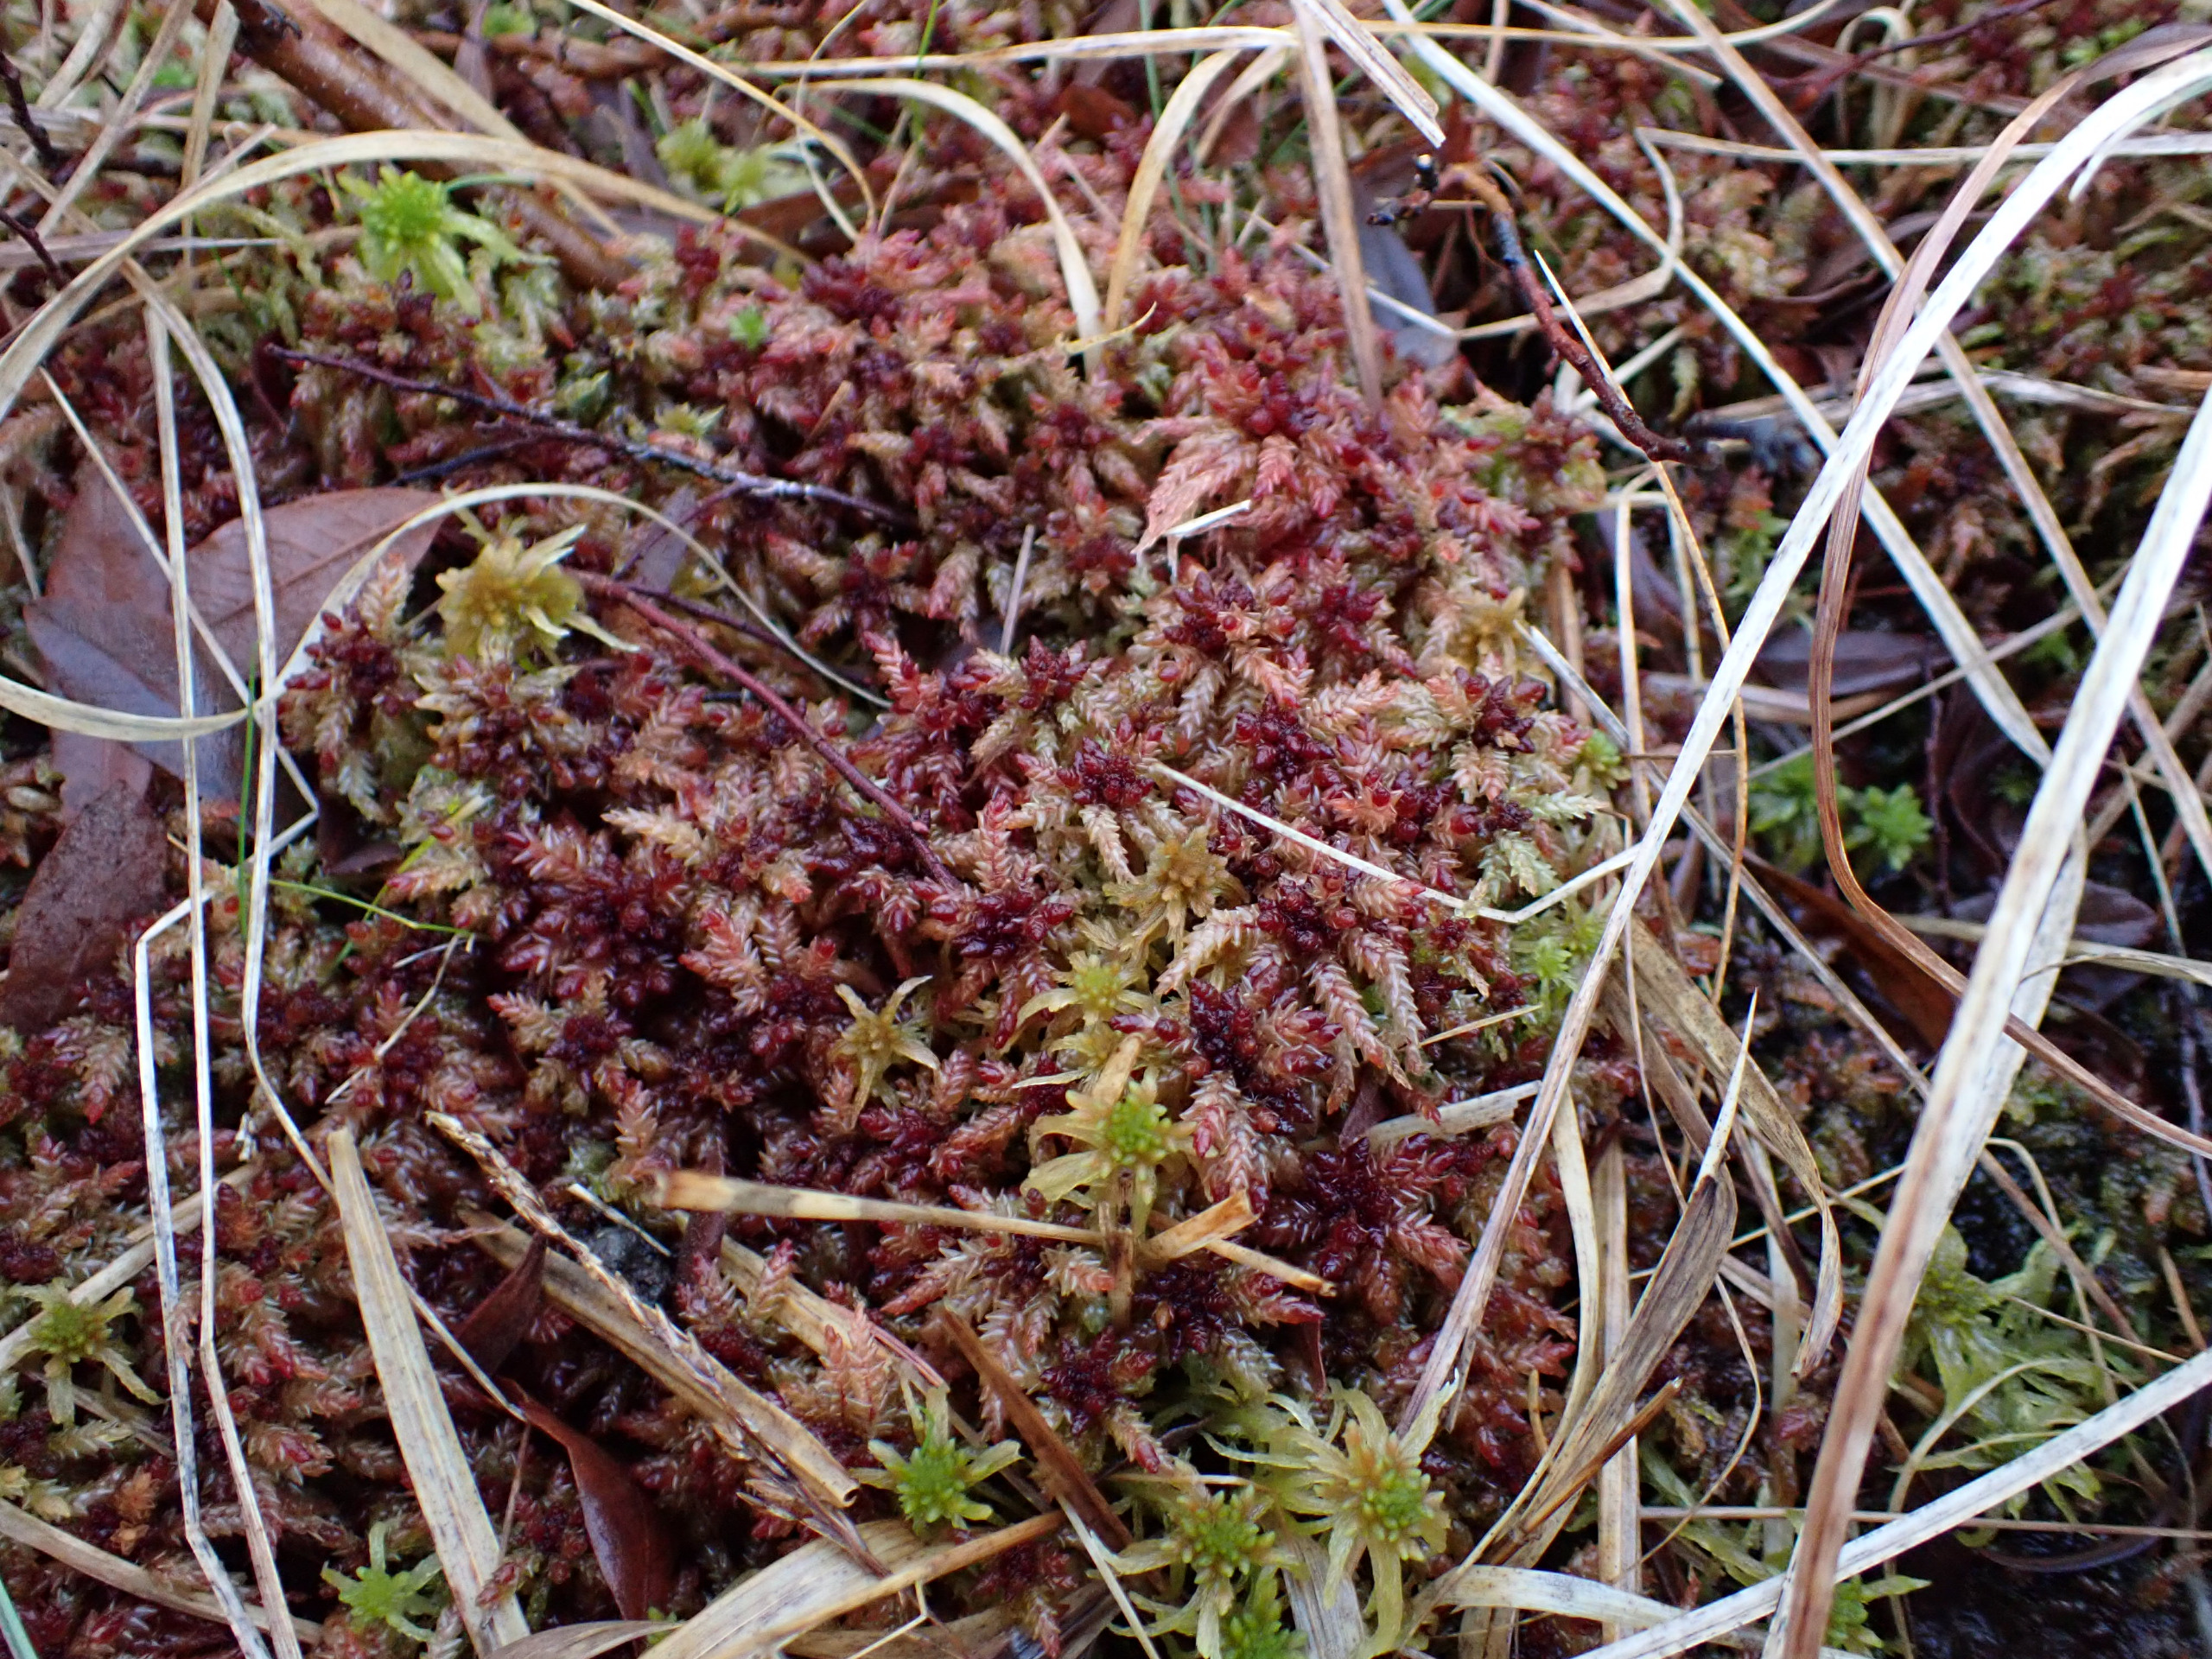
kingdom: Plantae
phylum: Bryophyta
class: Sphagnopsida
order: Sphagnales
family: Sphagnaceae
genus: Sphagnum
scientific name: Sphagnum
